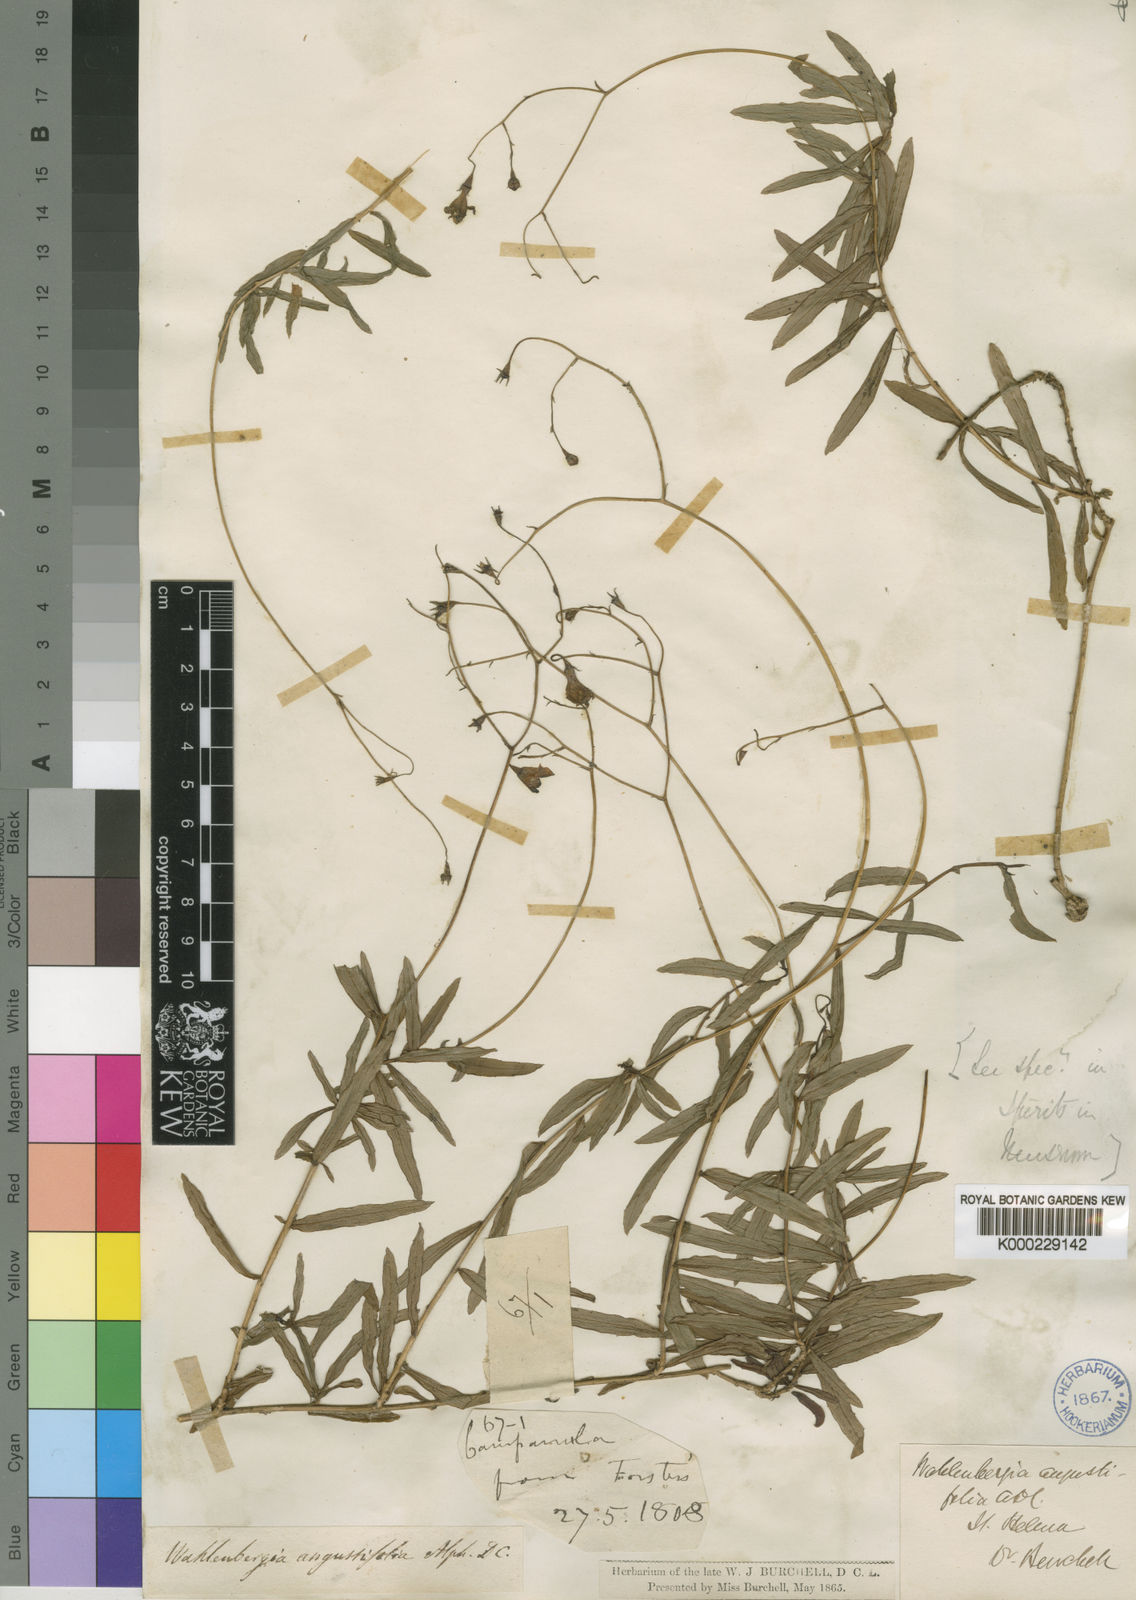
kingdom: Plantae
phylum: Tracheophyta
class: Magnoliopsida
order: Asterales
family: Campanulaceae
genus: Wahlenbergia
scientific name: Wahlenbergia angustifolia
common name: Small bellflower
